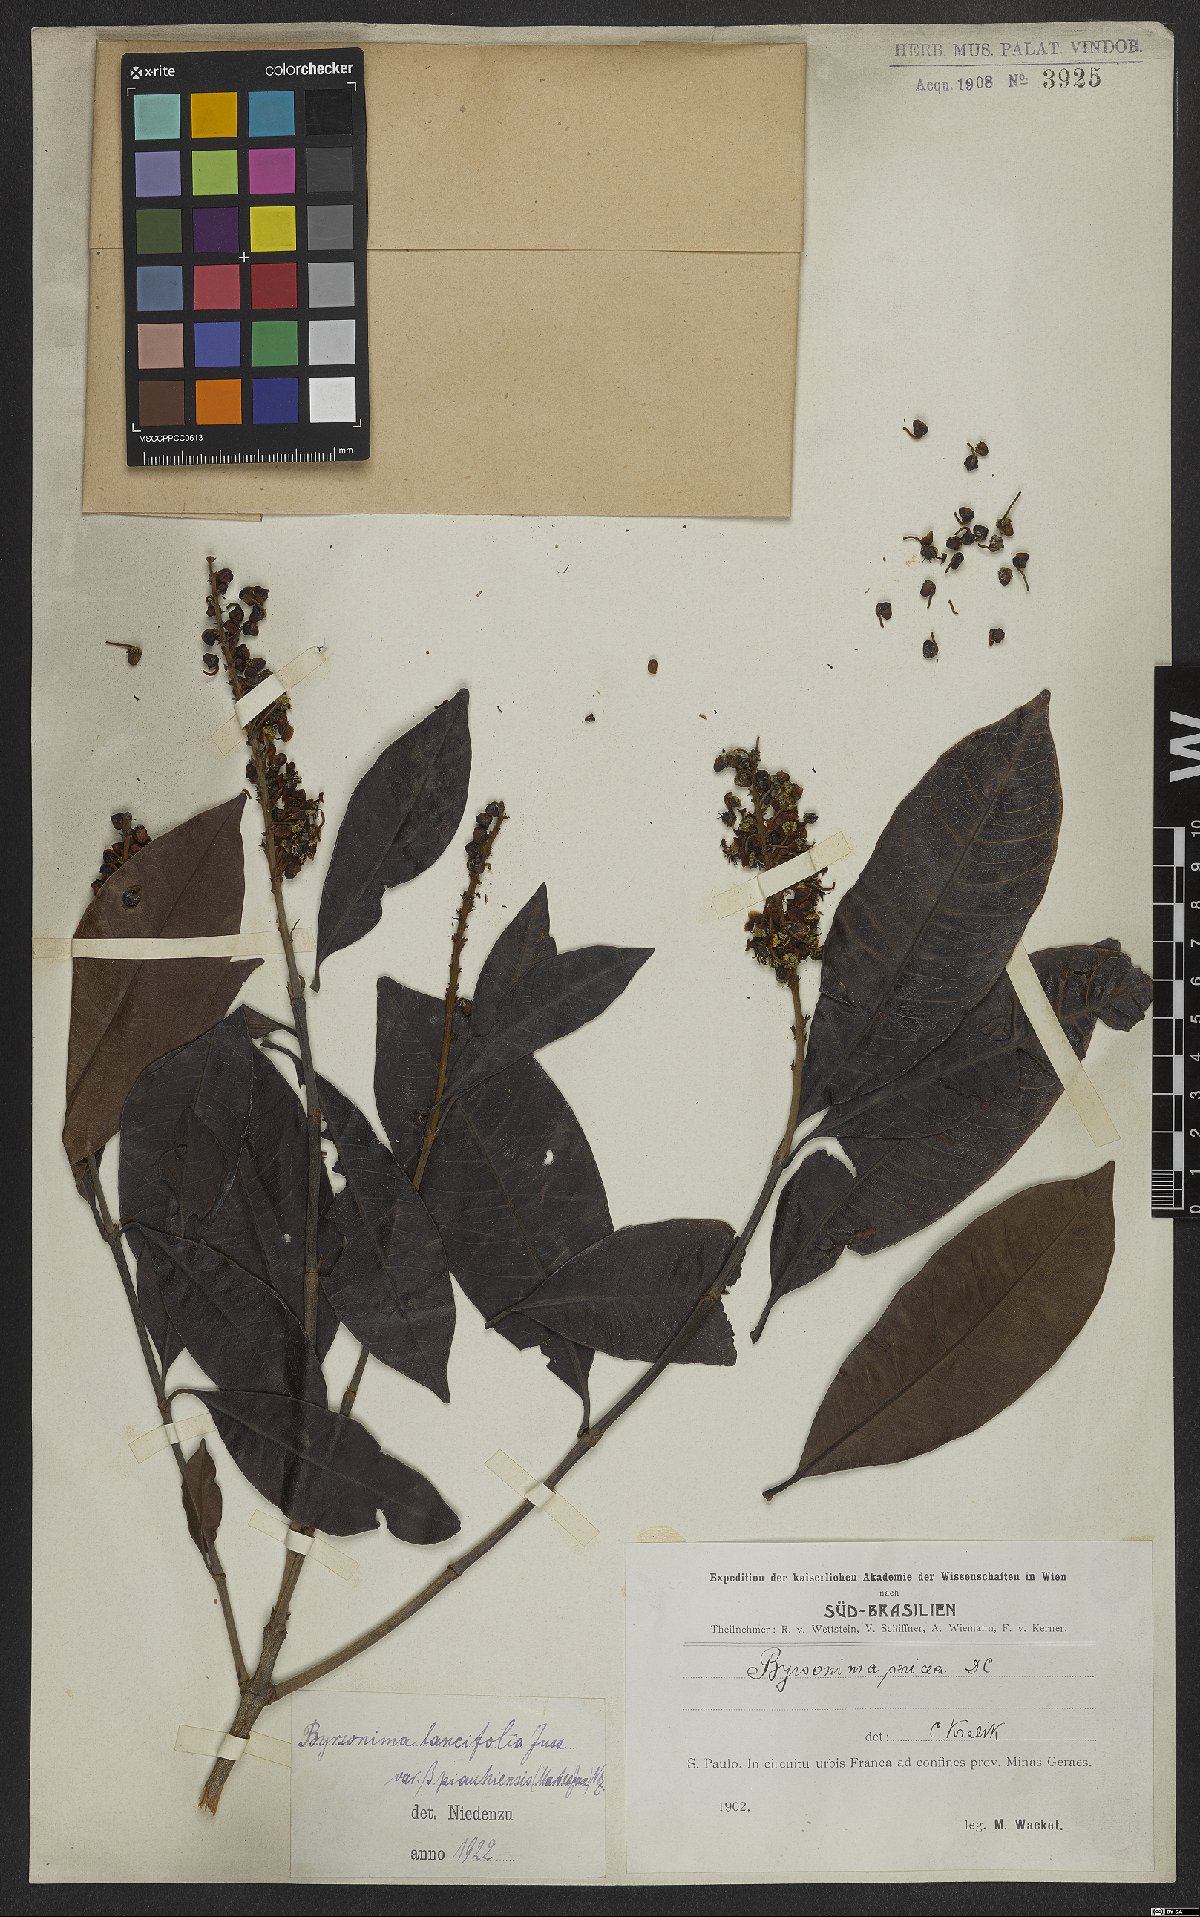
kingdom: Plantae
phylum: Tracheophyta
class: Magnoliopsida
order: Malpighiales
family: Malpighiaceae
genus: Byrsonima
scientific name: Byrsonima lancifolia
